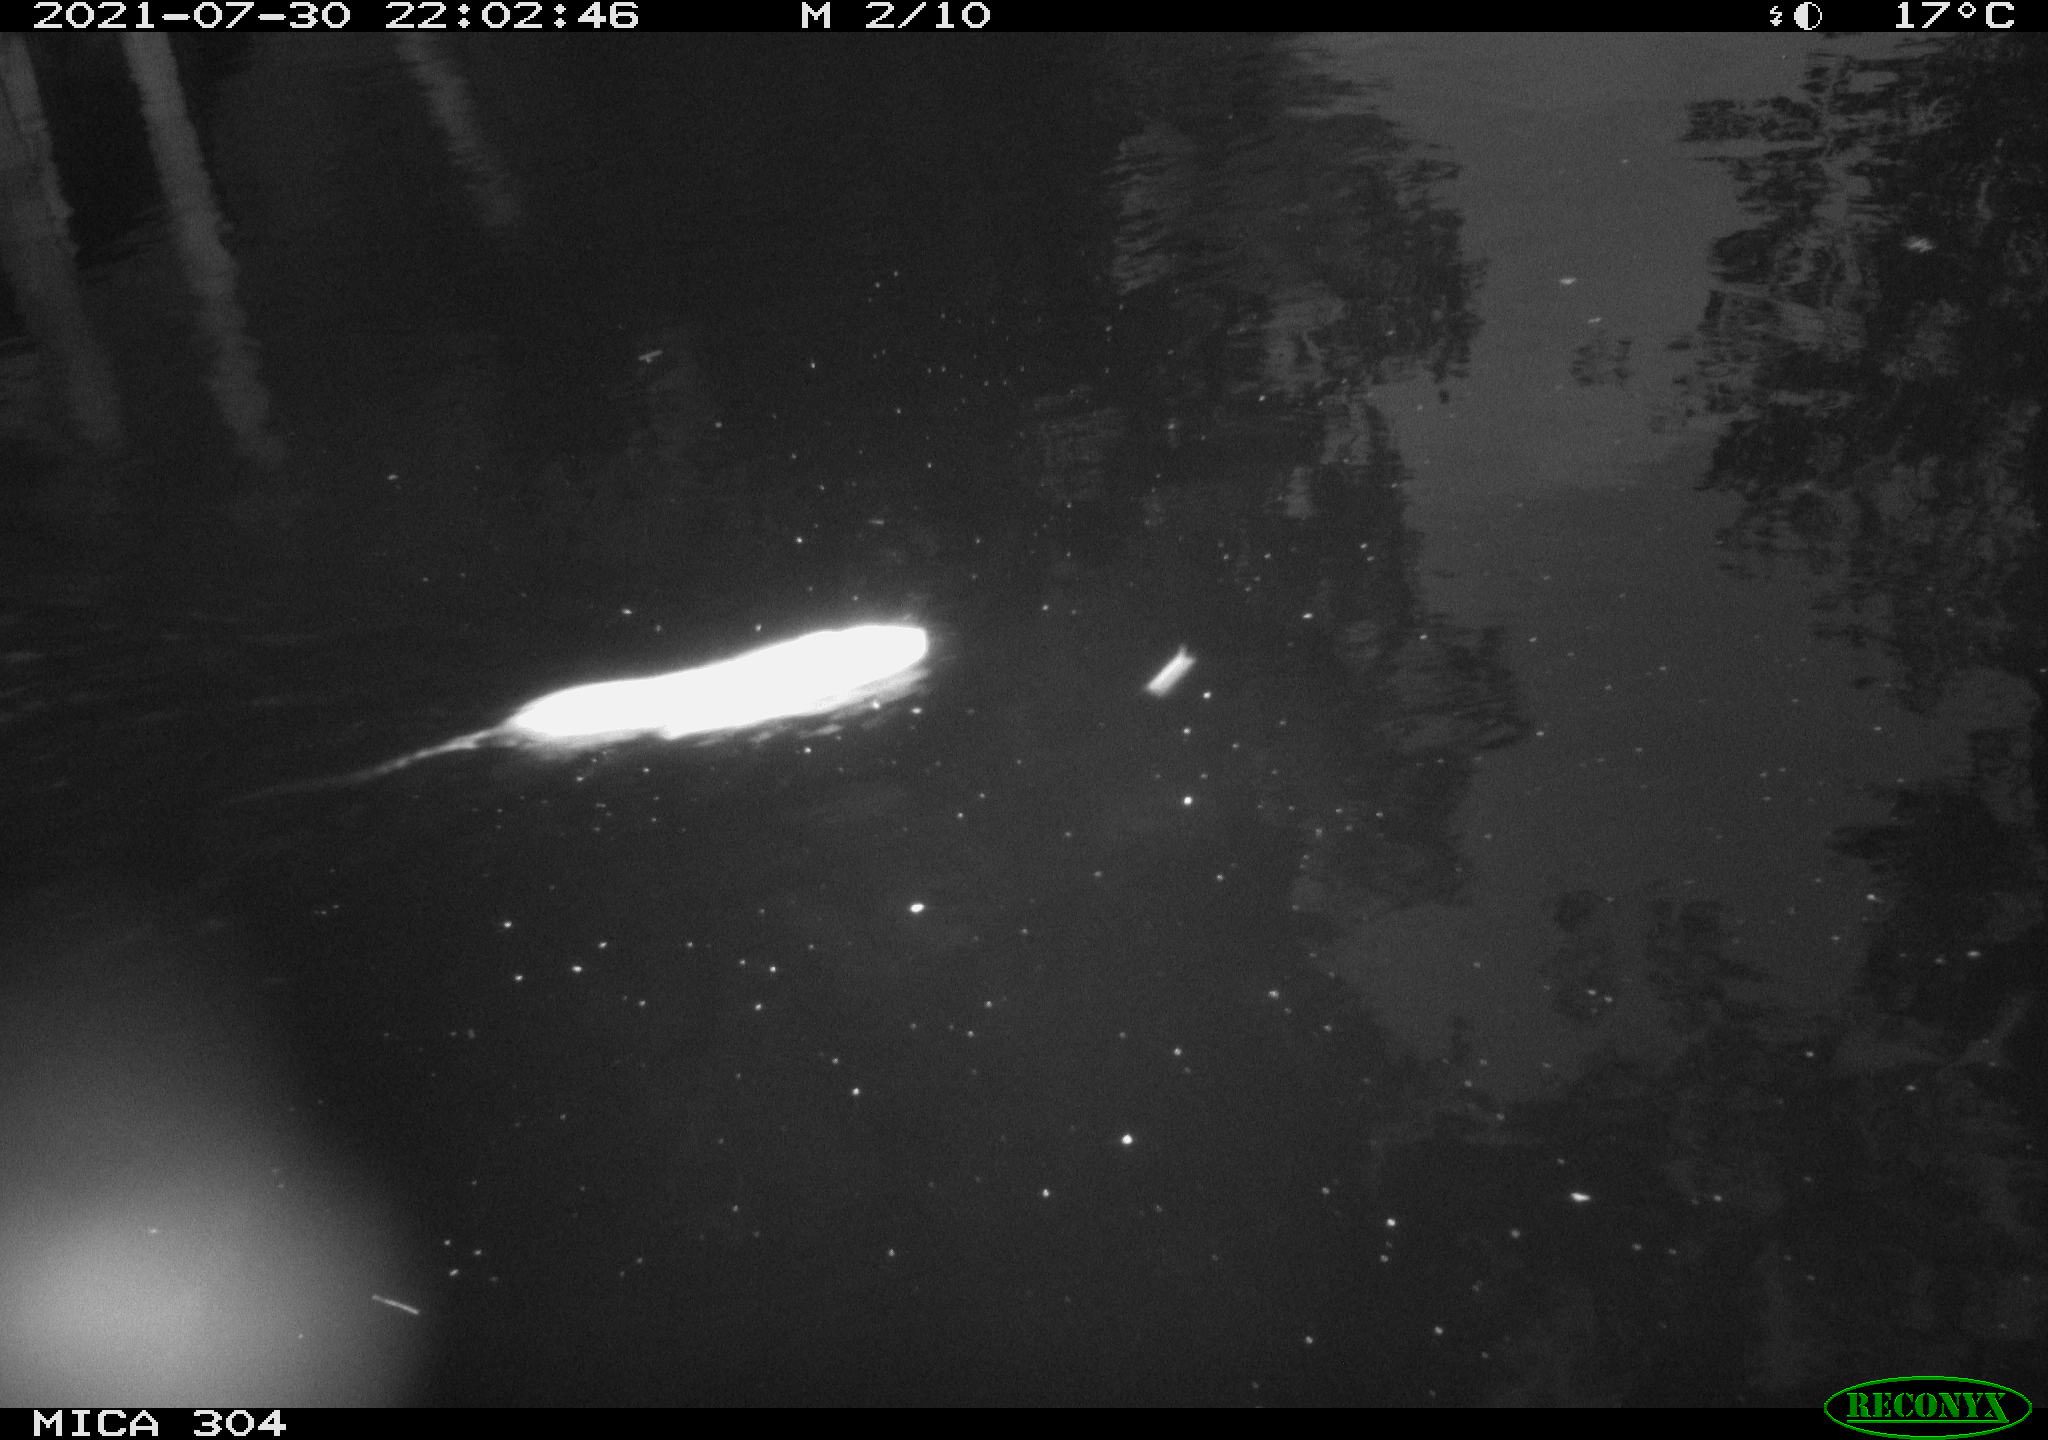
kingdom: Animalia
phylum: Chordata
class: Mammalia
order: Rodentia
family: Muridae
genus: Rattus
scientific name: Rattus norvegicus
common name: Brown rat
